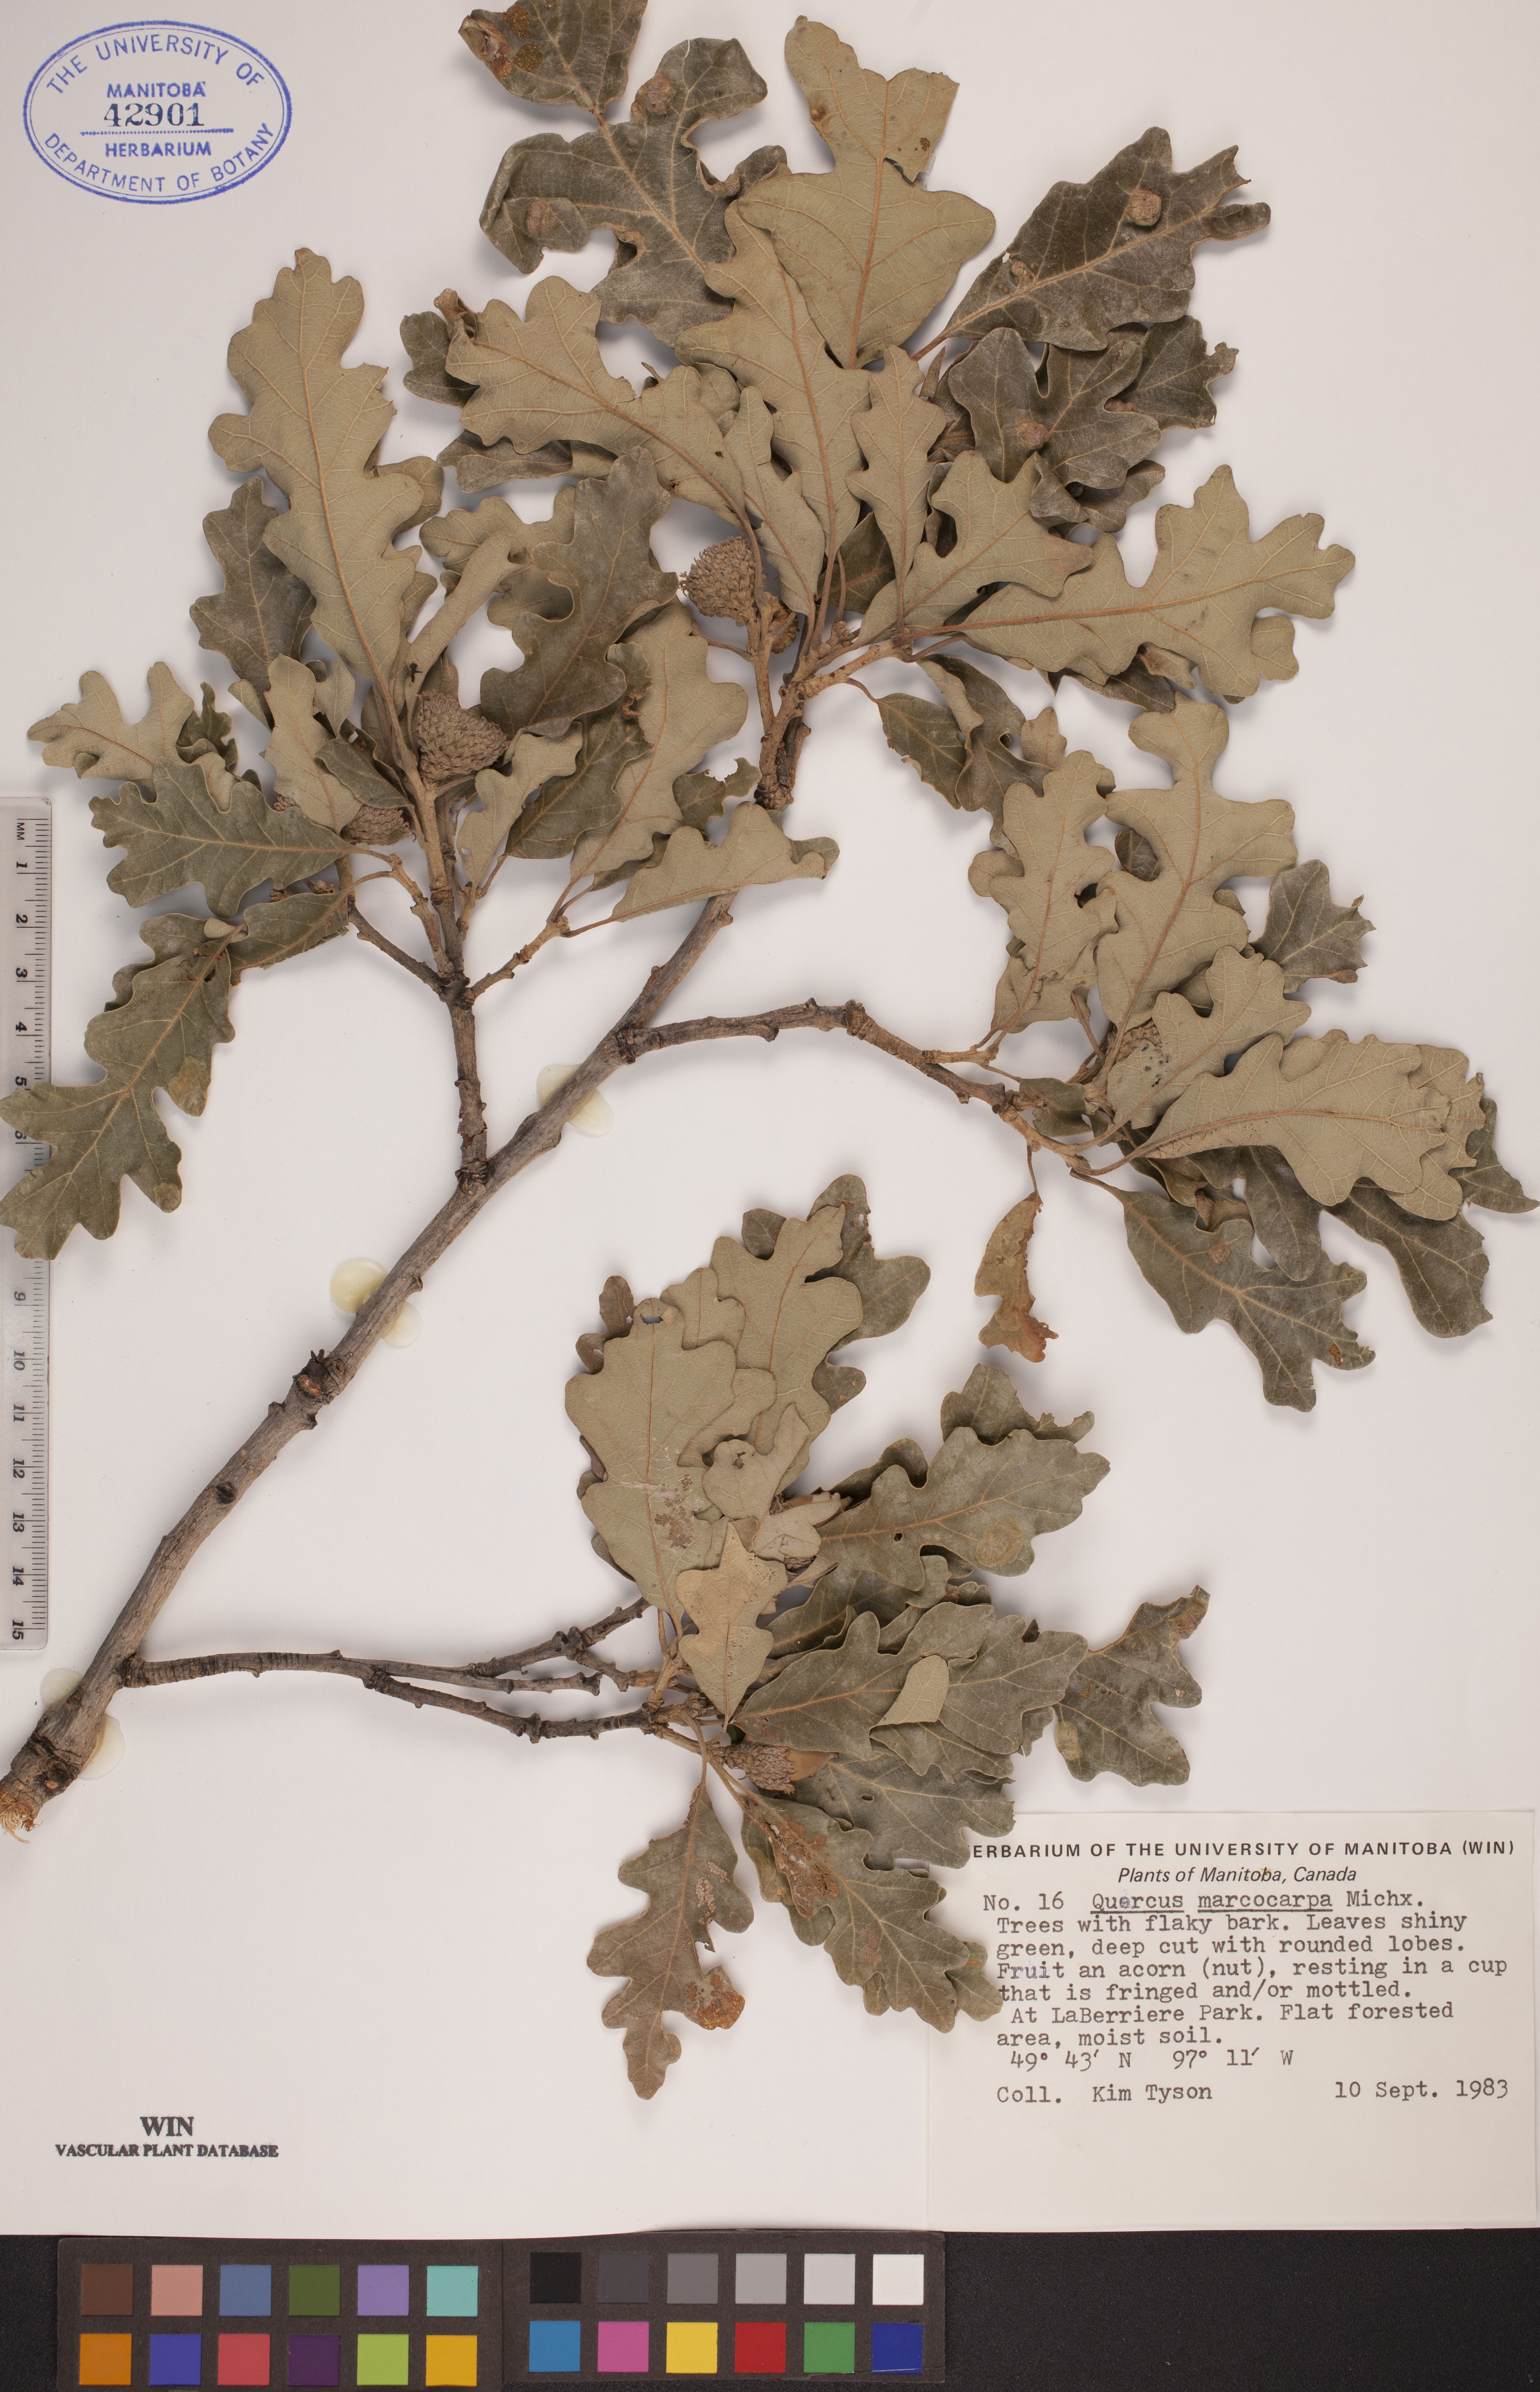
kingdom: Plantae
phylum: Tracheophyta
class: Magnoliopsida
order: Fagales
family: Fagaceae
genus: Quercus
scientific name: Quercus macrocarpa
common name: Bur oak
